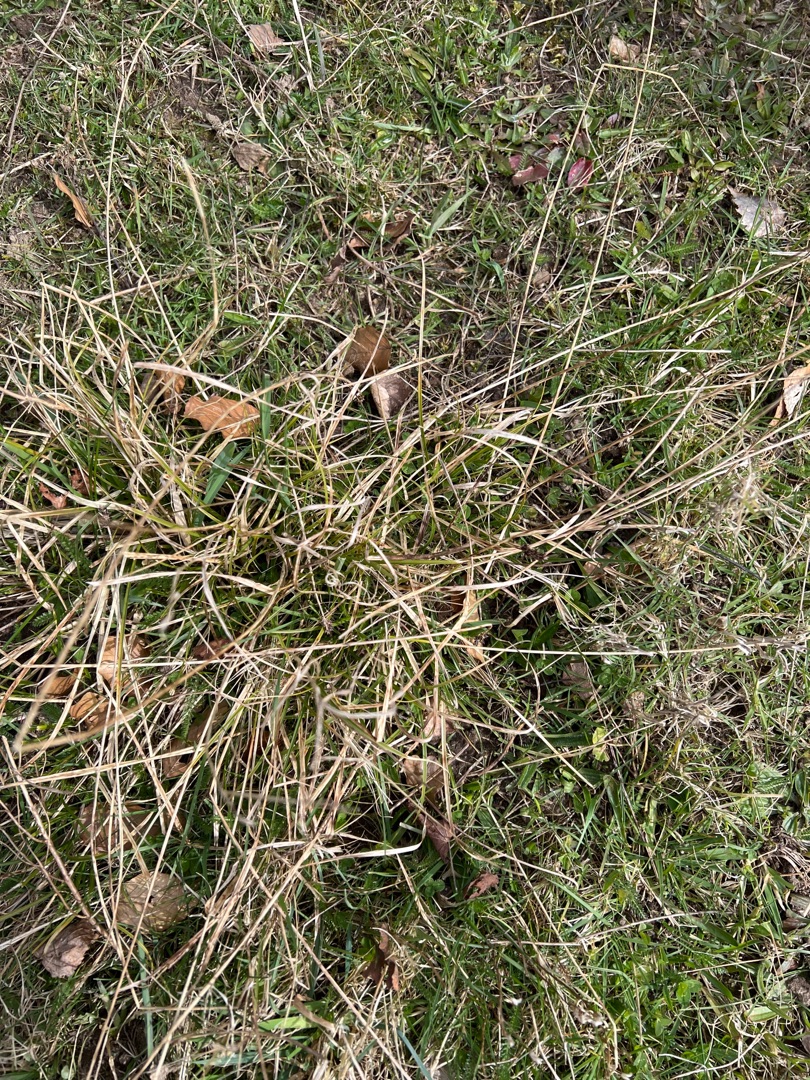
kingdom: Plantae
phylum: Tracheophyta
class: Liliopsida
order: Poales
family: Cyperaceae
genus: Carex
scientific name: Carex pairae
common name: Pigget star
